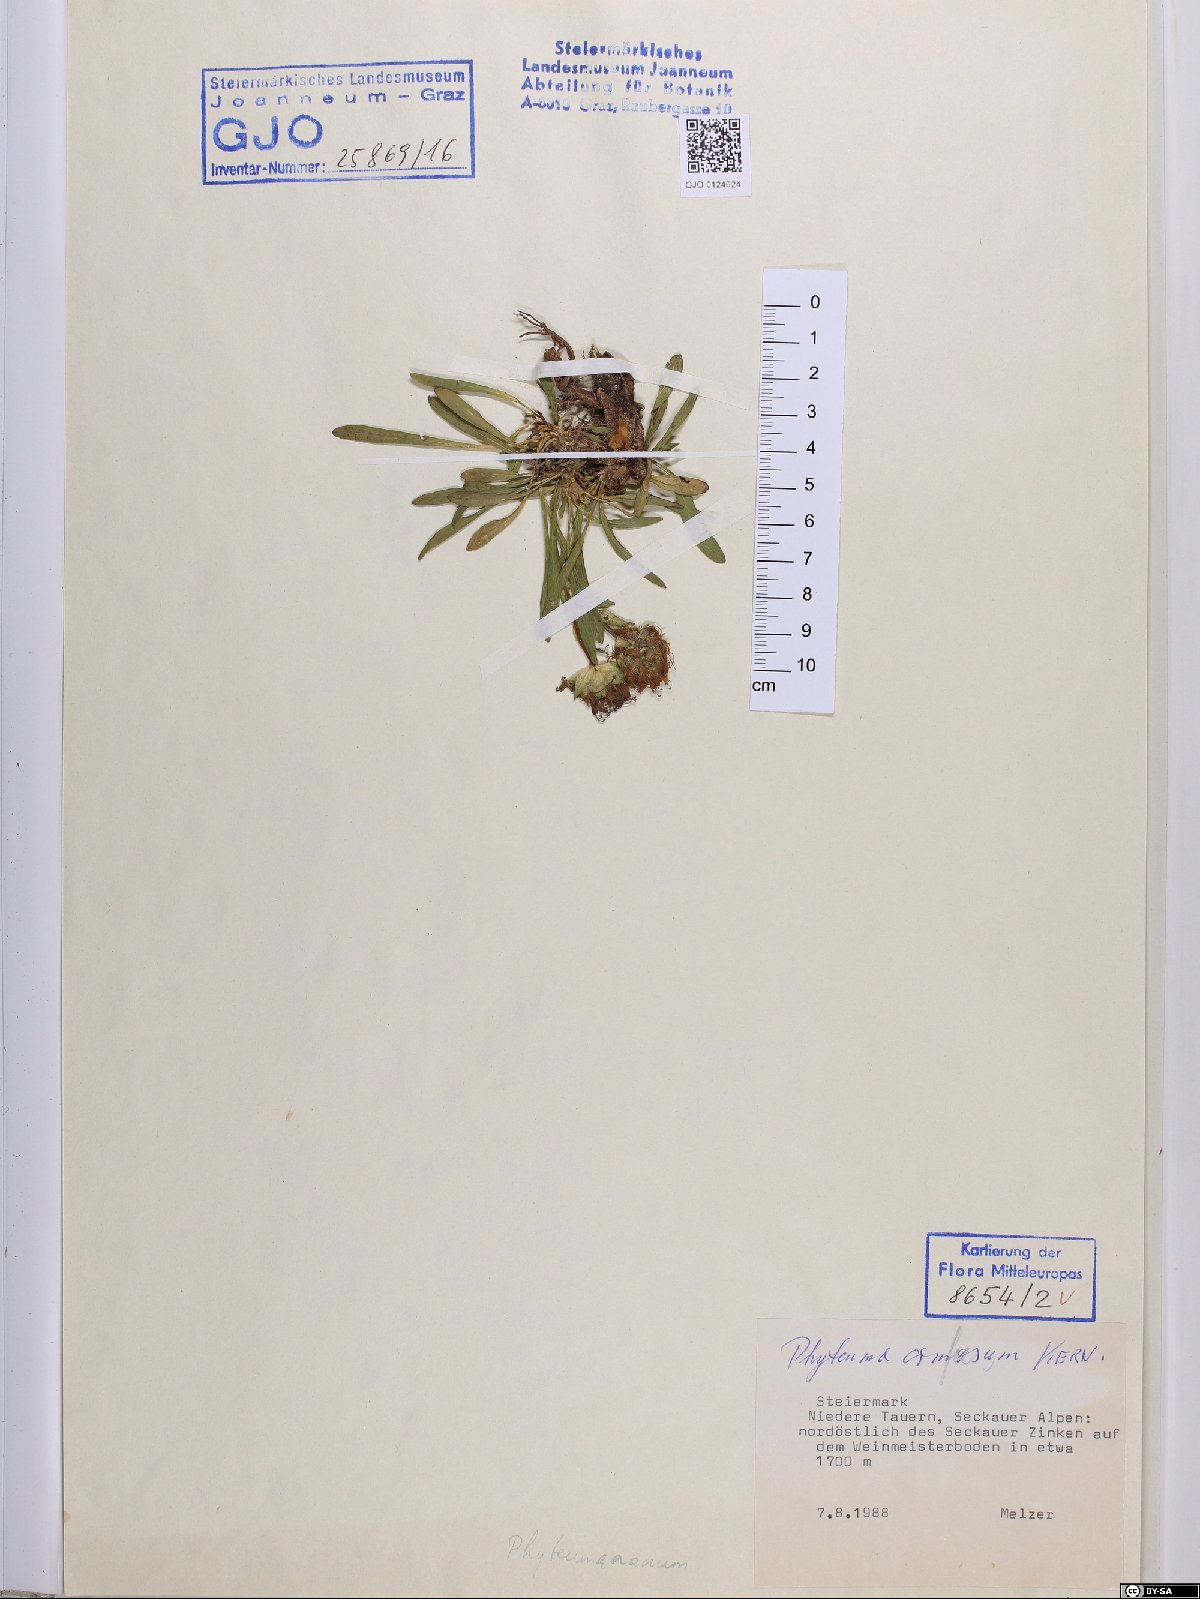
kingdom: Plantae
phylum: Tracheophyta
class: Magnoliopsida
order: Asterales
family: Campanulaceae
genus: Phyteuma
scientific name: Phyteuma confusum
